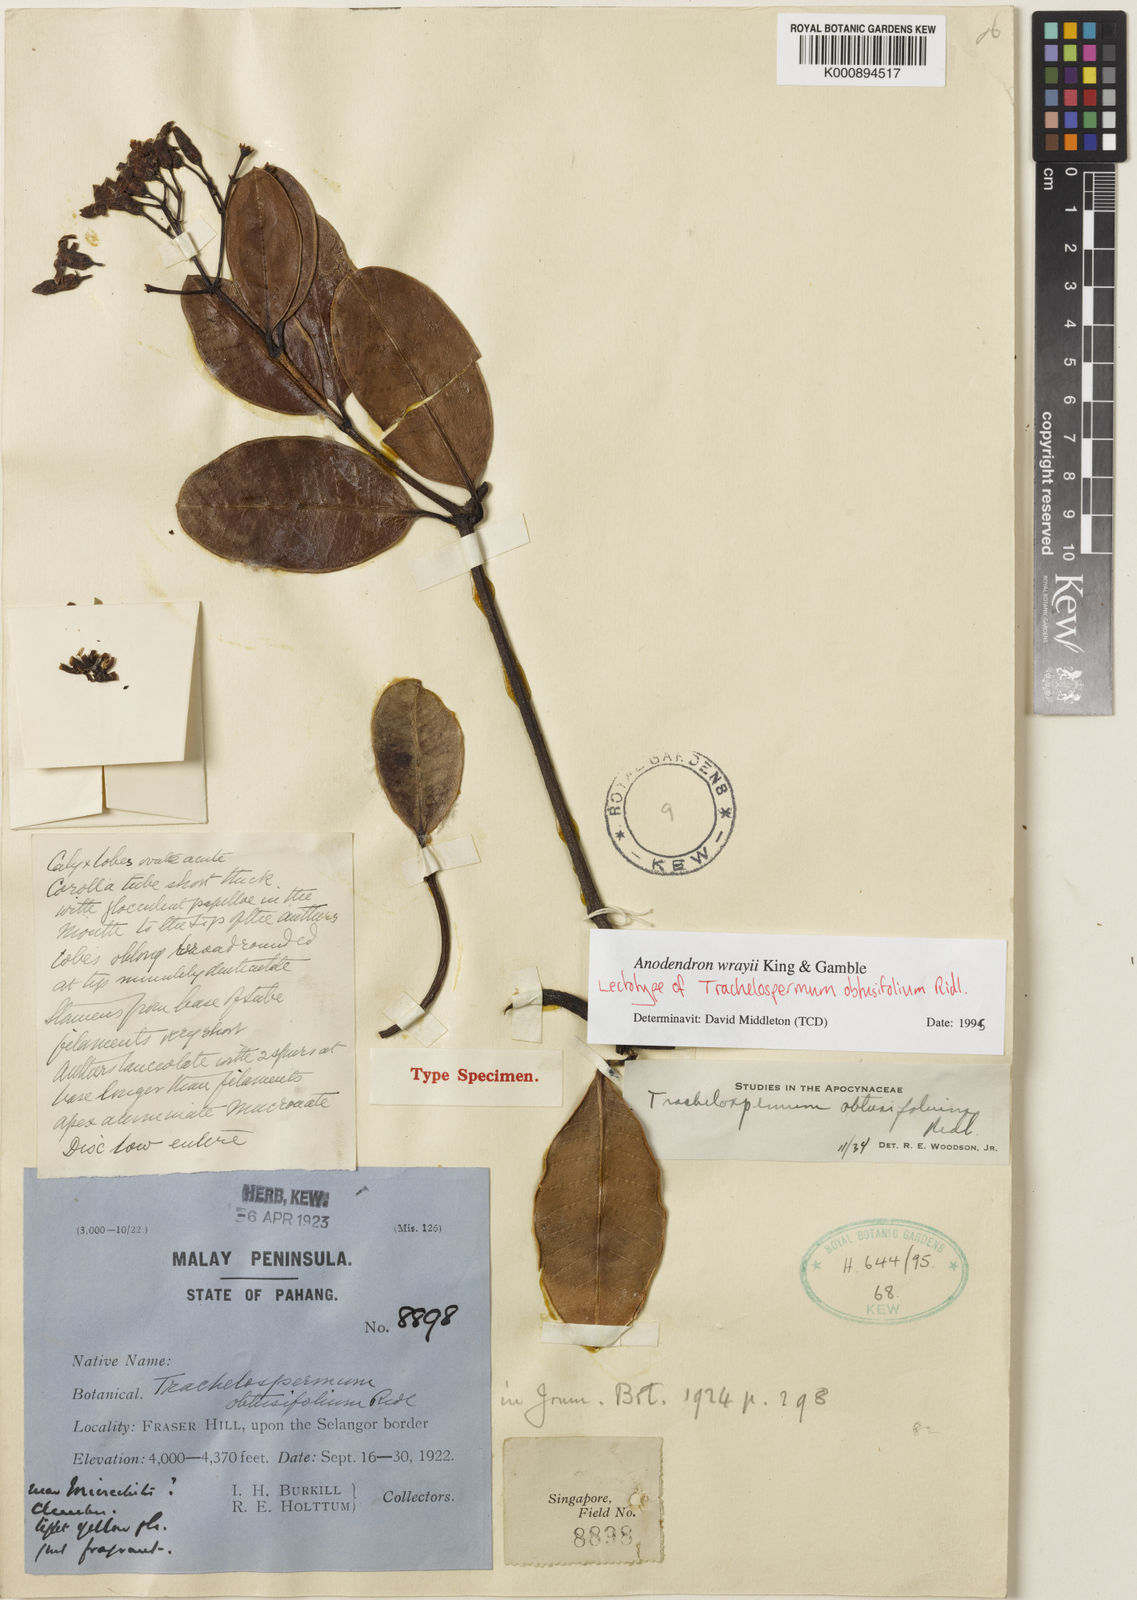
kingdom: Plantae
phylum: Tracheophyta
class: Magnoliopsida
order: Gentianales
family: Apocynaceae
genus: Anodendron
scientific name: Anodendron wrayi
